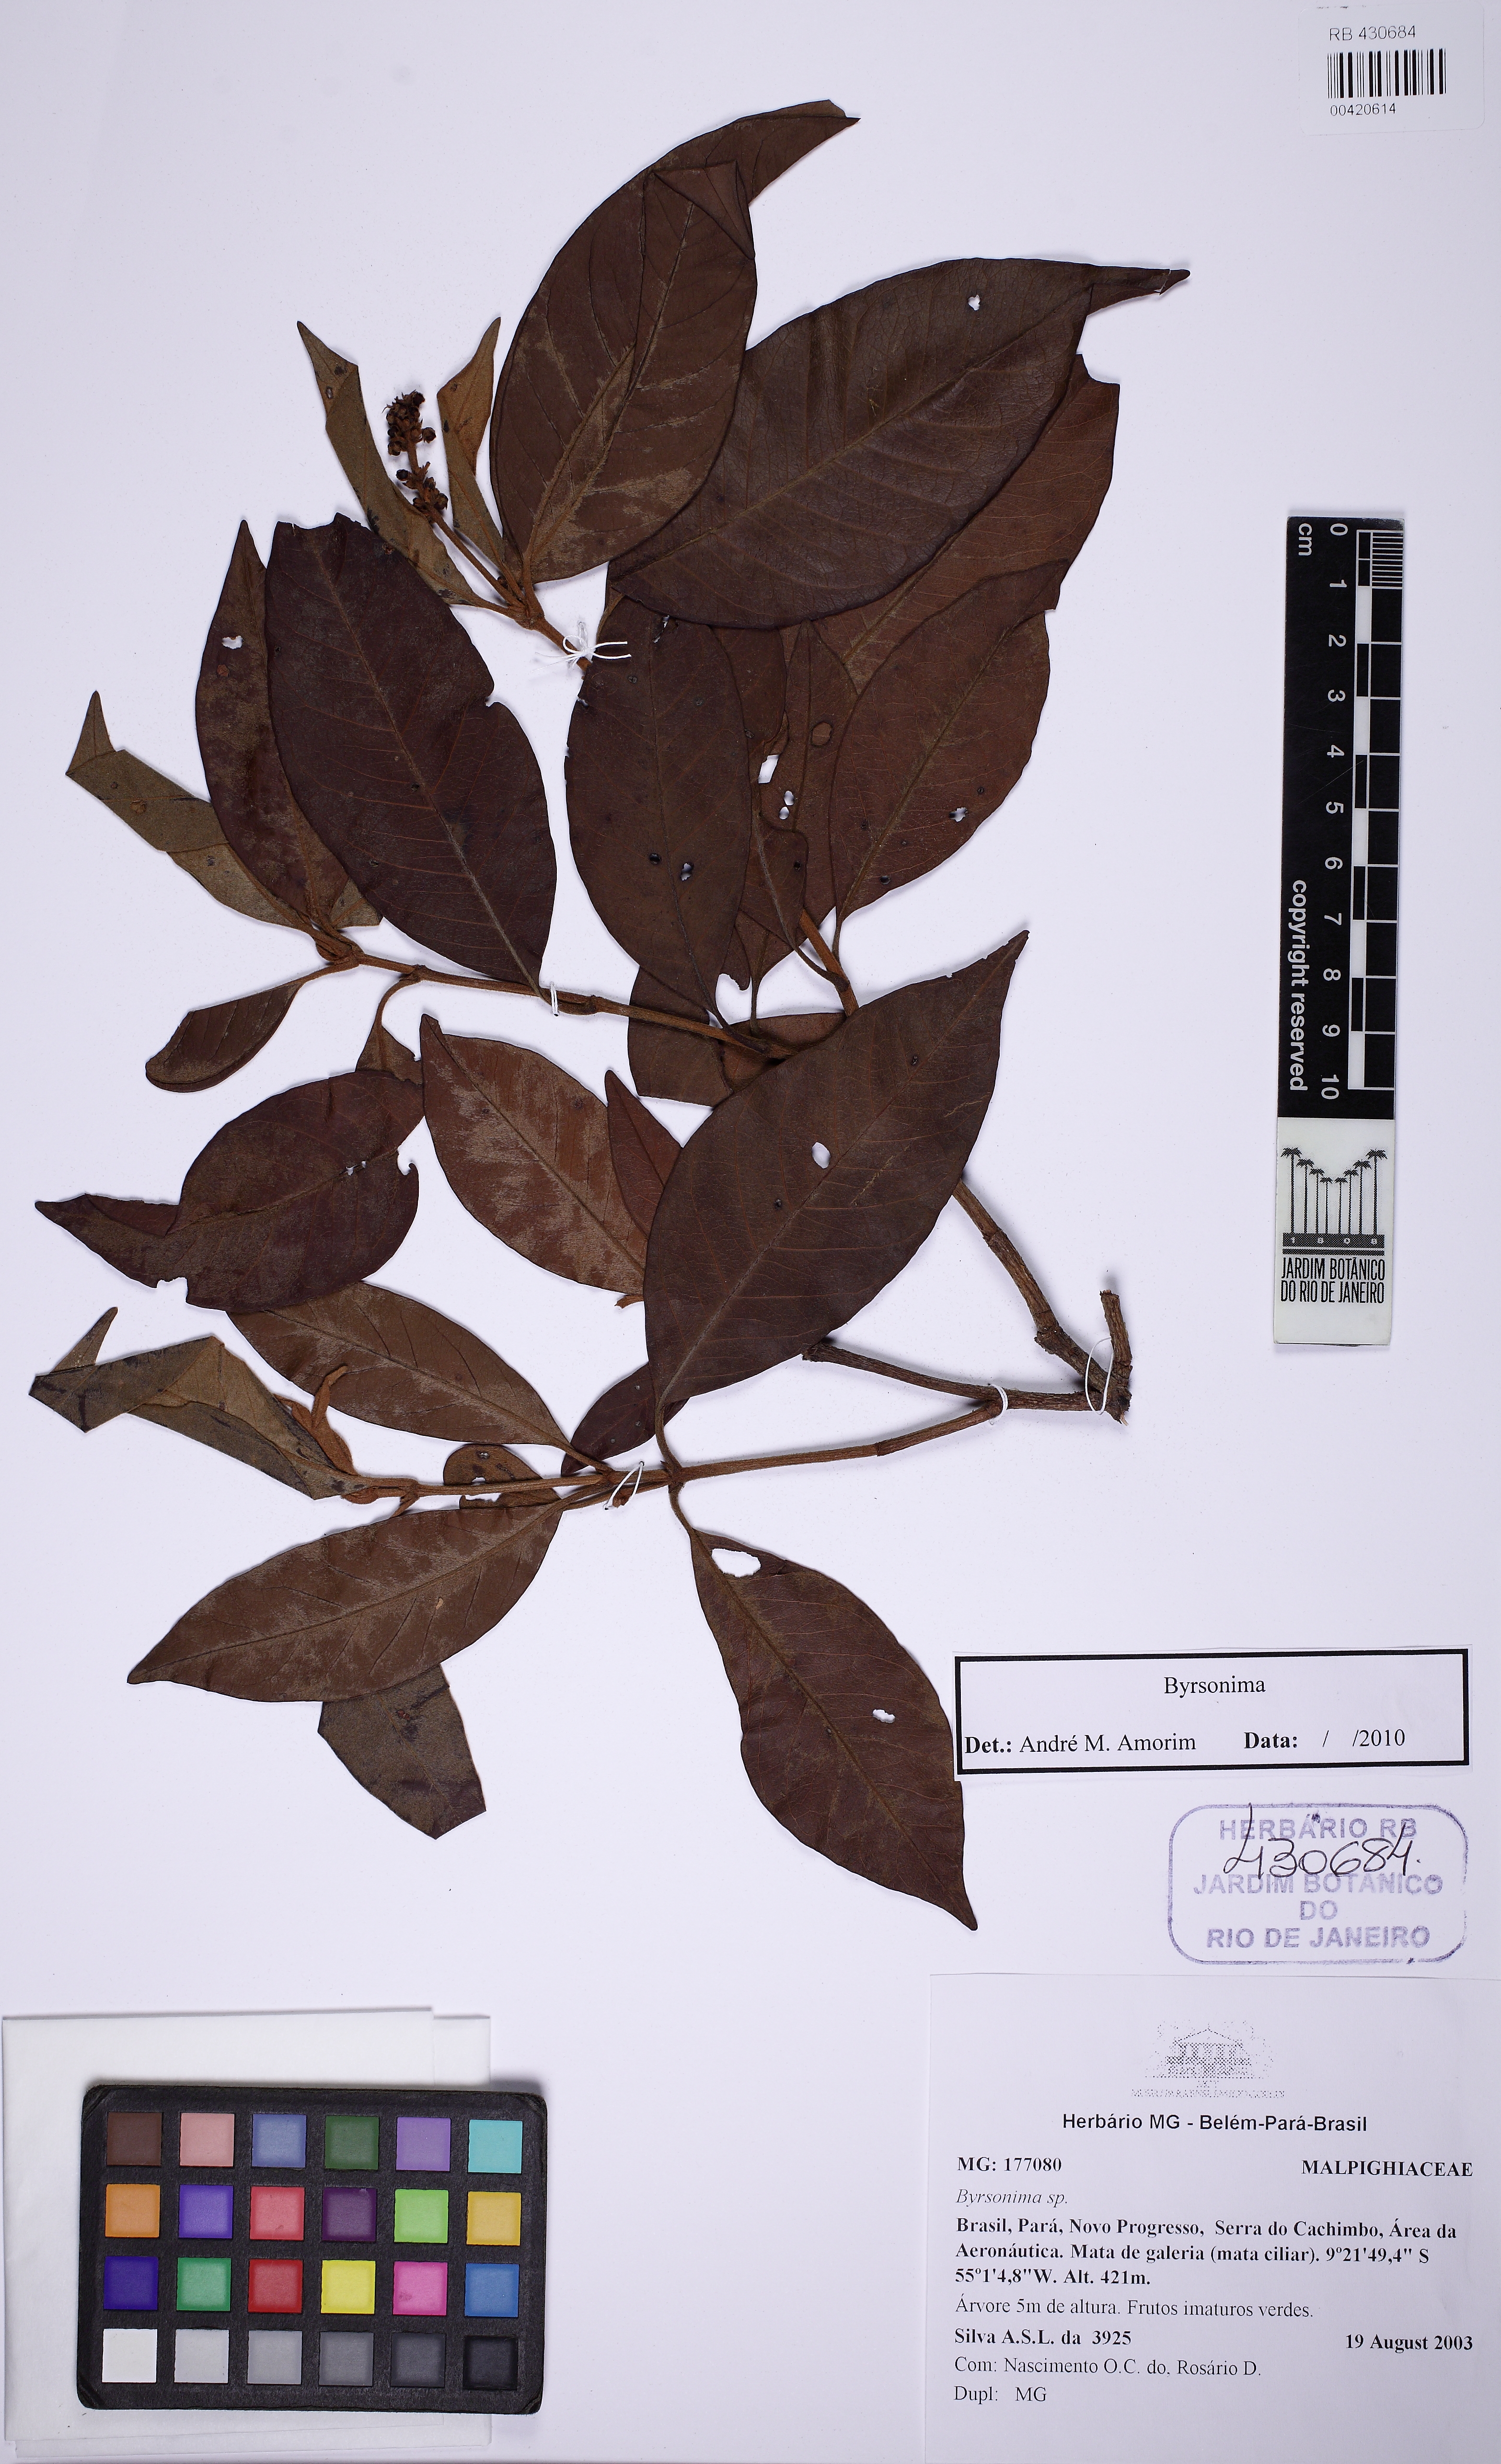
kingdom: Plantae
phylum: Tracheophyta
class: Magnoliopsida
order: Malpighiales
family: Malpighiaceae
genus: Byrsonima
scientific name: Byrsonima
